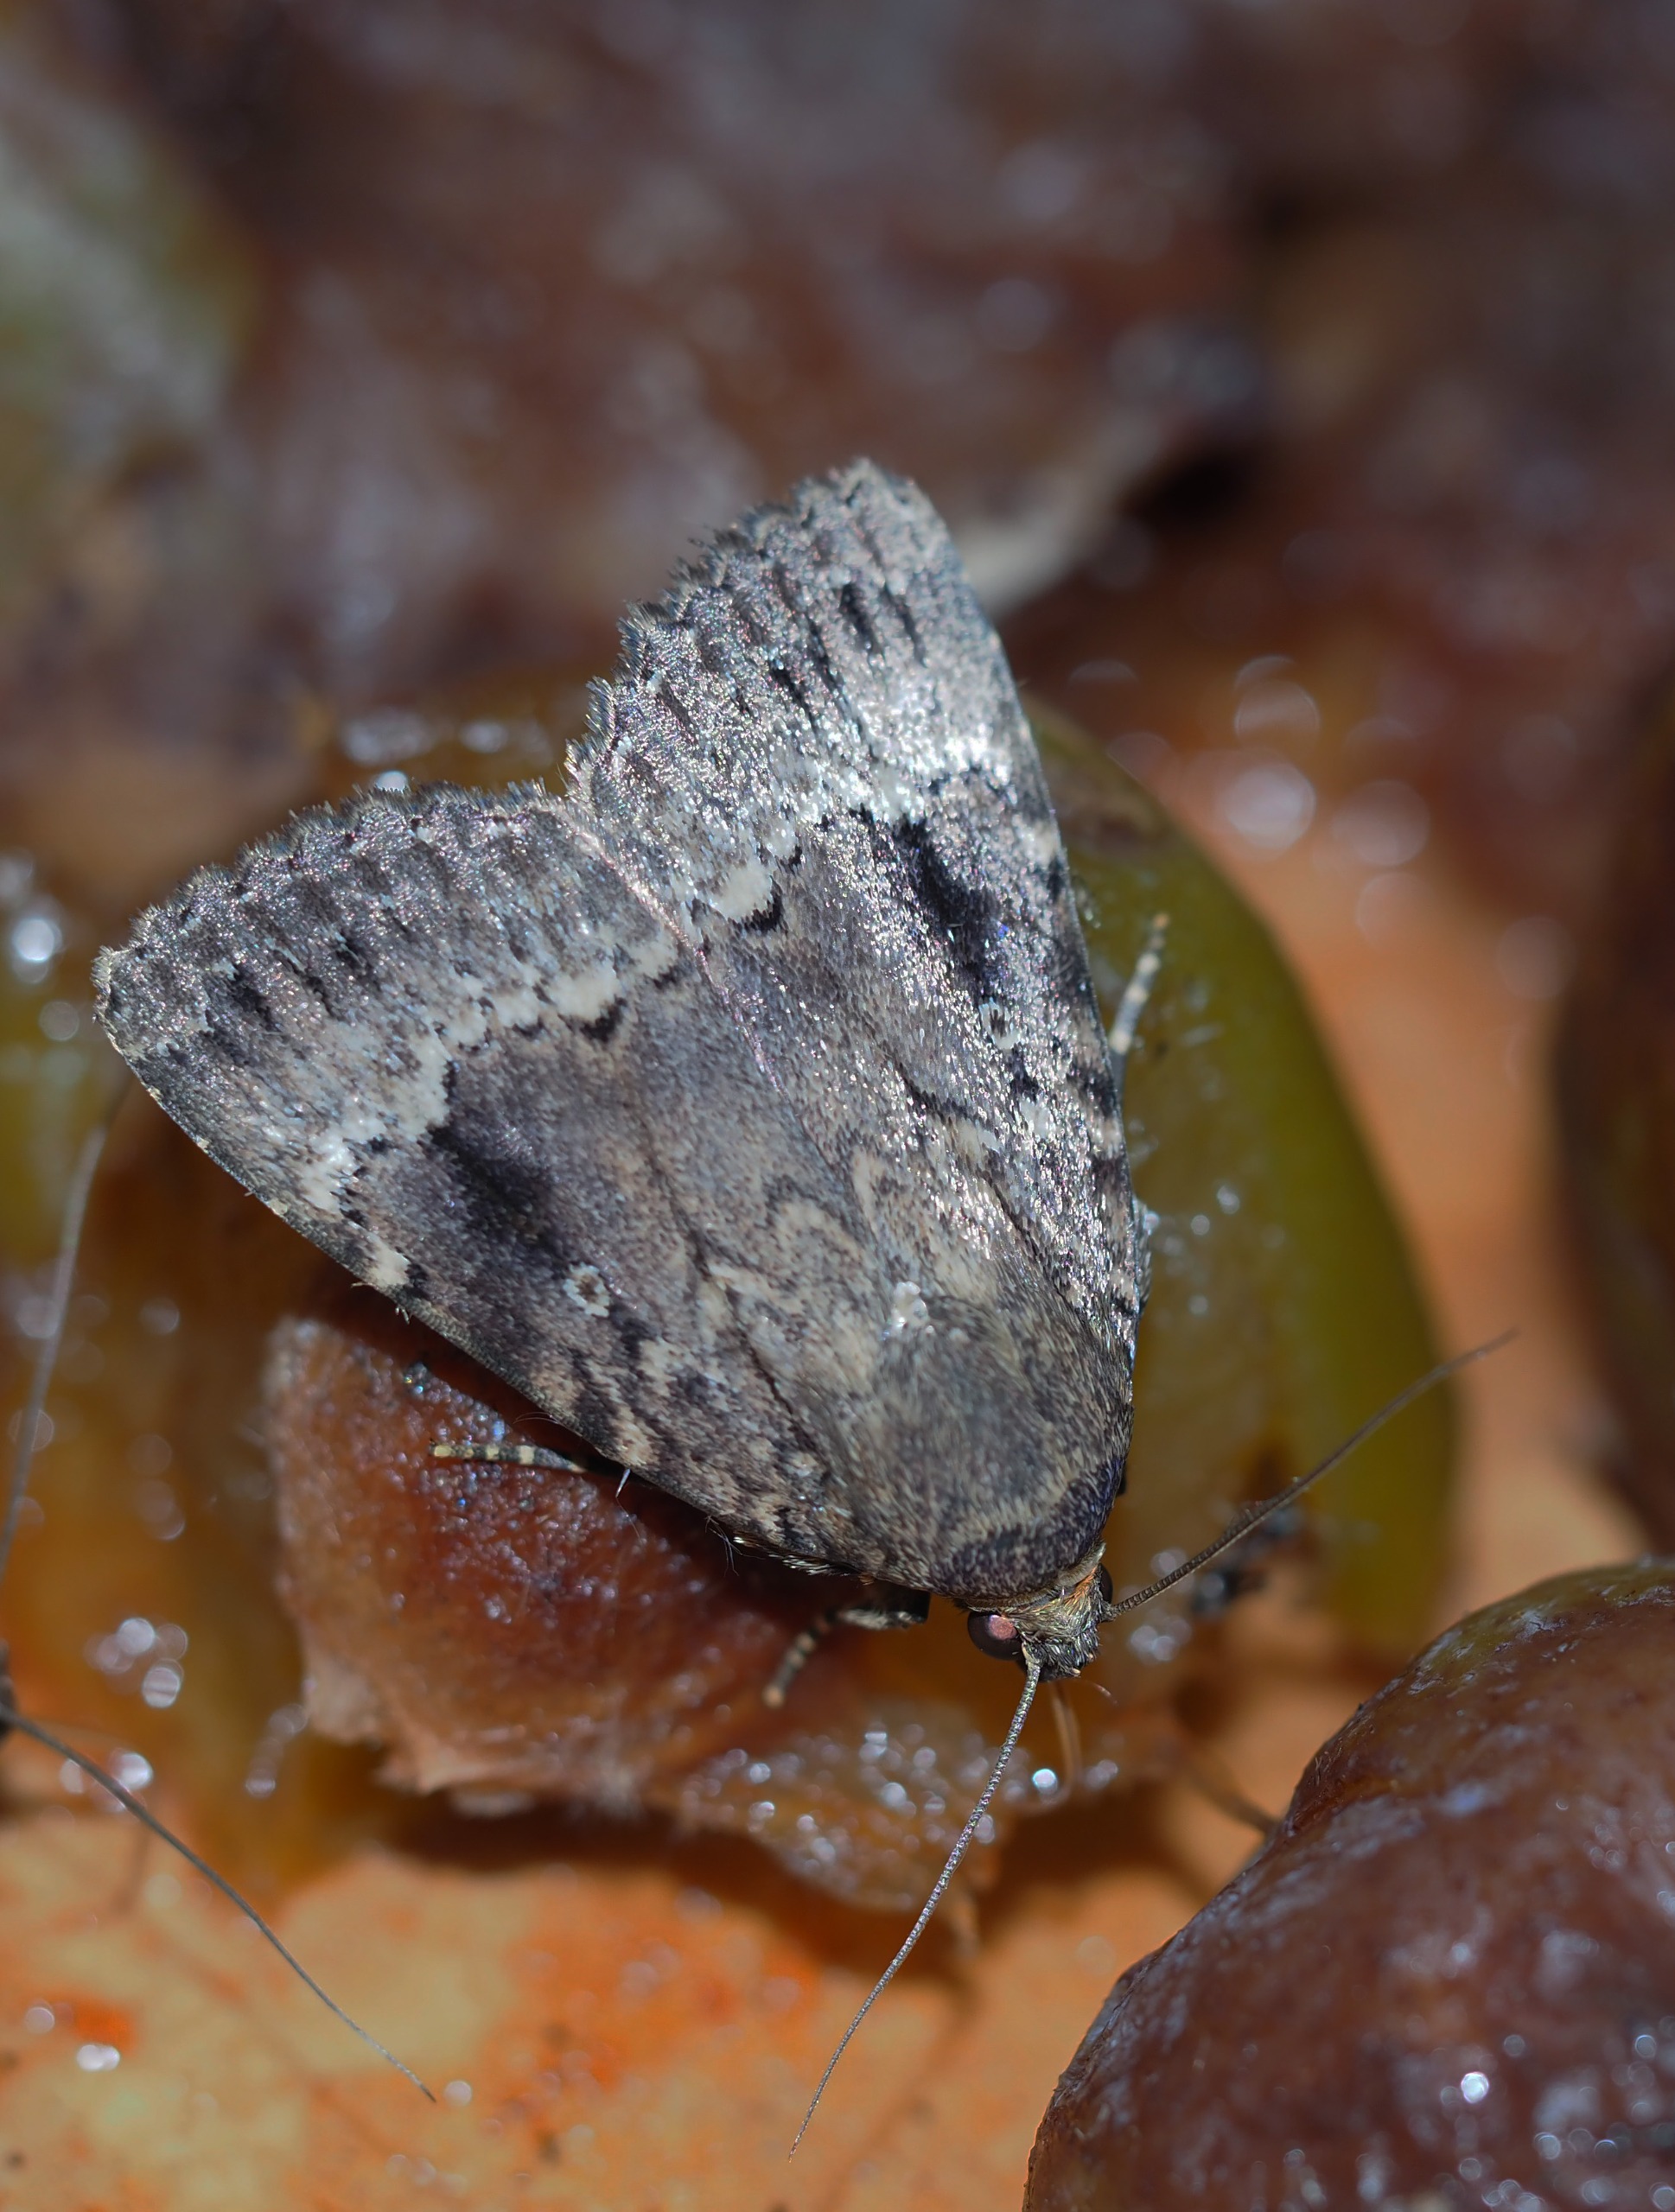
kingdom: Animalia
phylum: Arthropoda
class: Insecta
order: Lepidoptera
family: Noctuidae
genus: Amphipyra
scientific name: Amphipyra pyramidea
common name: Pyramideugle
